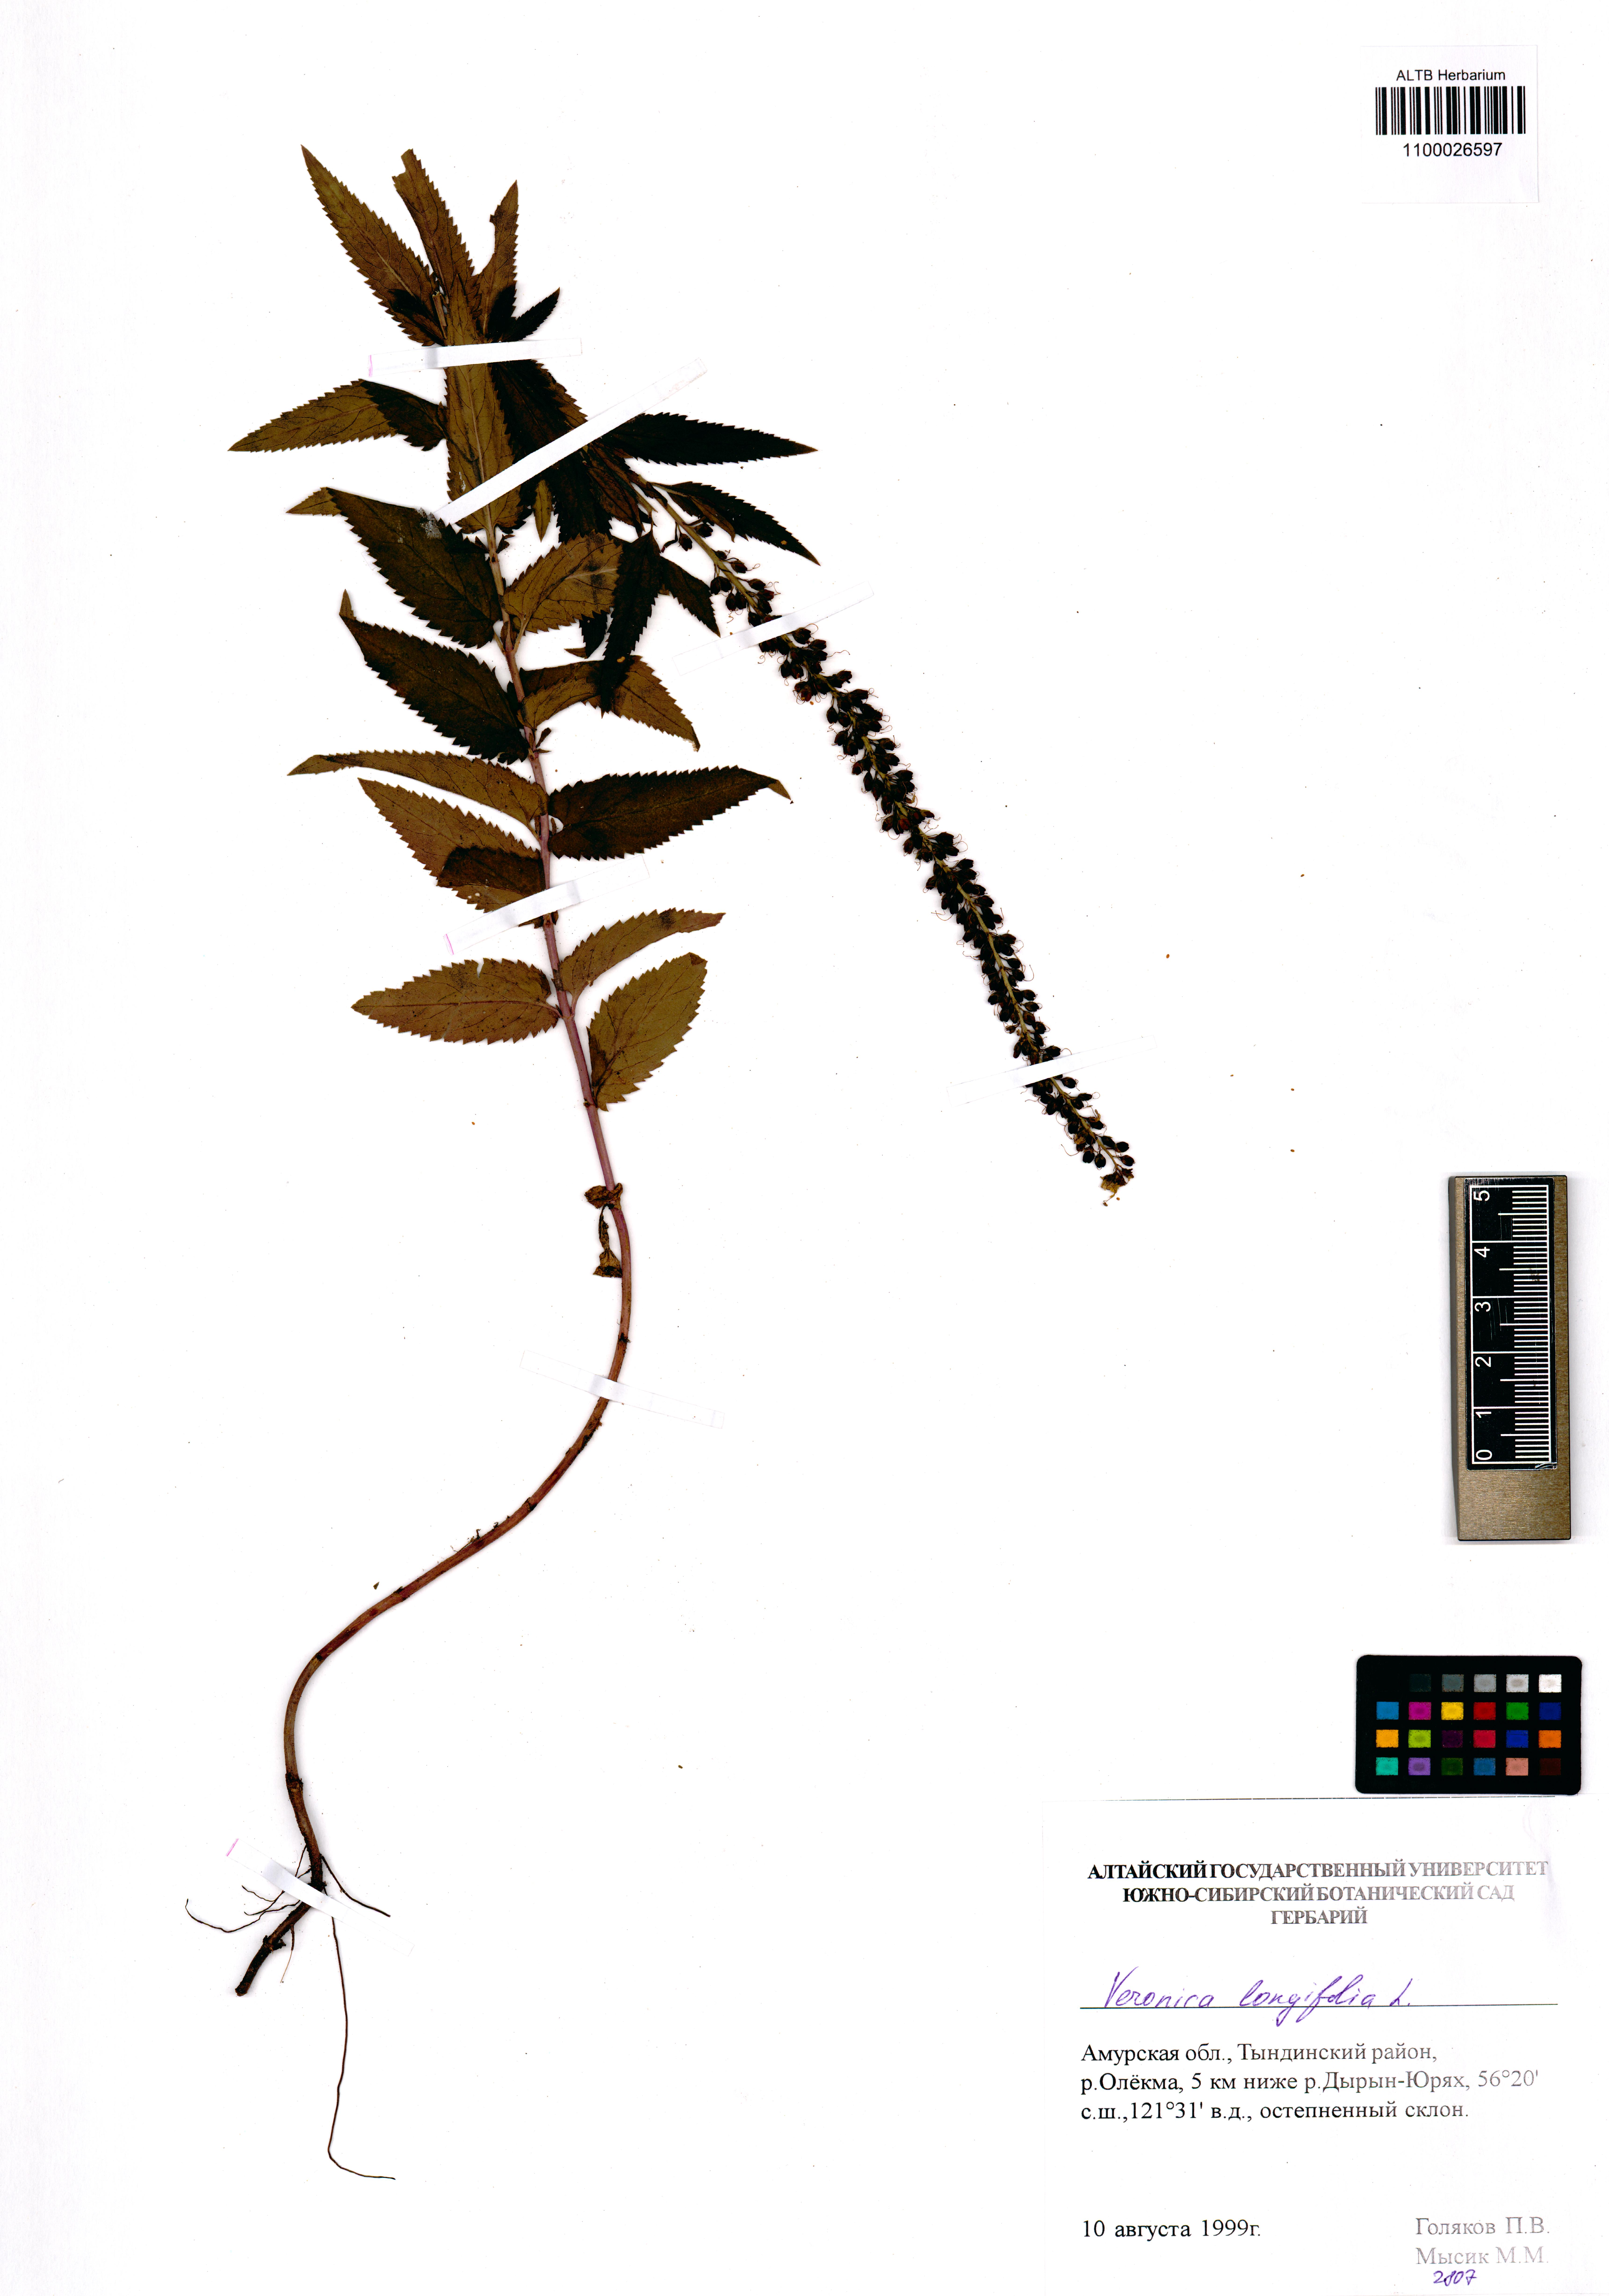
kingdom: Plantae
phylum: Tracheophyta
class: Magnoliopsida
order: Lamiales
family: Plantaginaceae
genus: Veronica
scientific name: Veronica longifolia
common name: Garden speedwell
